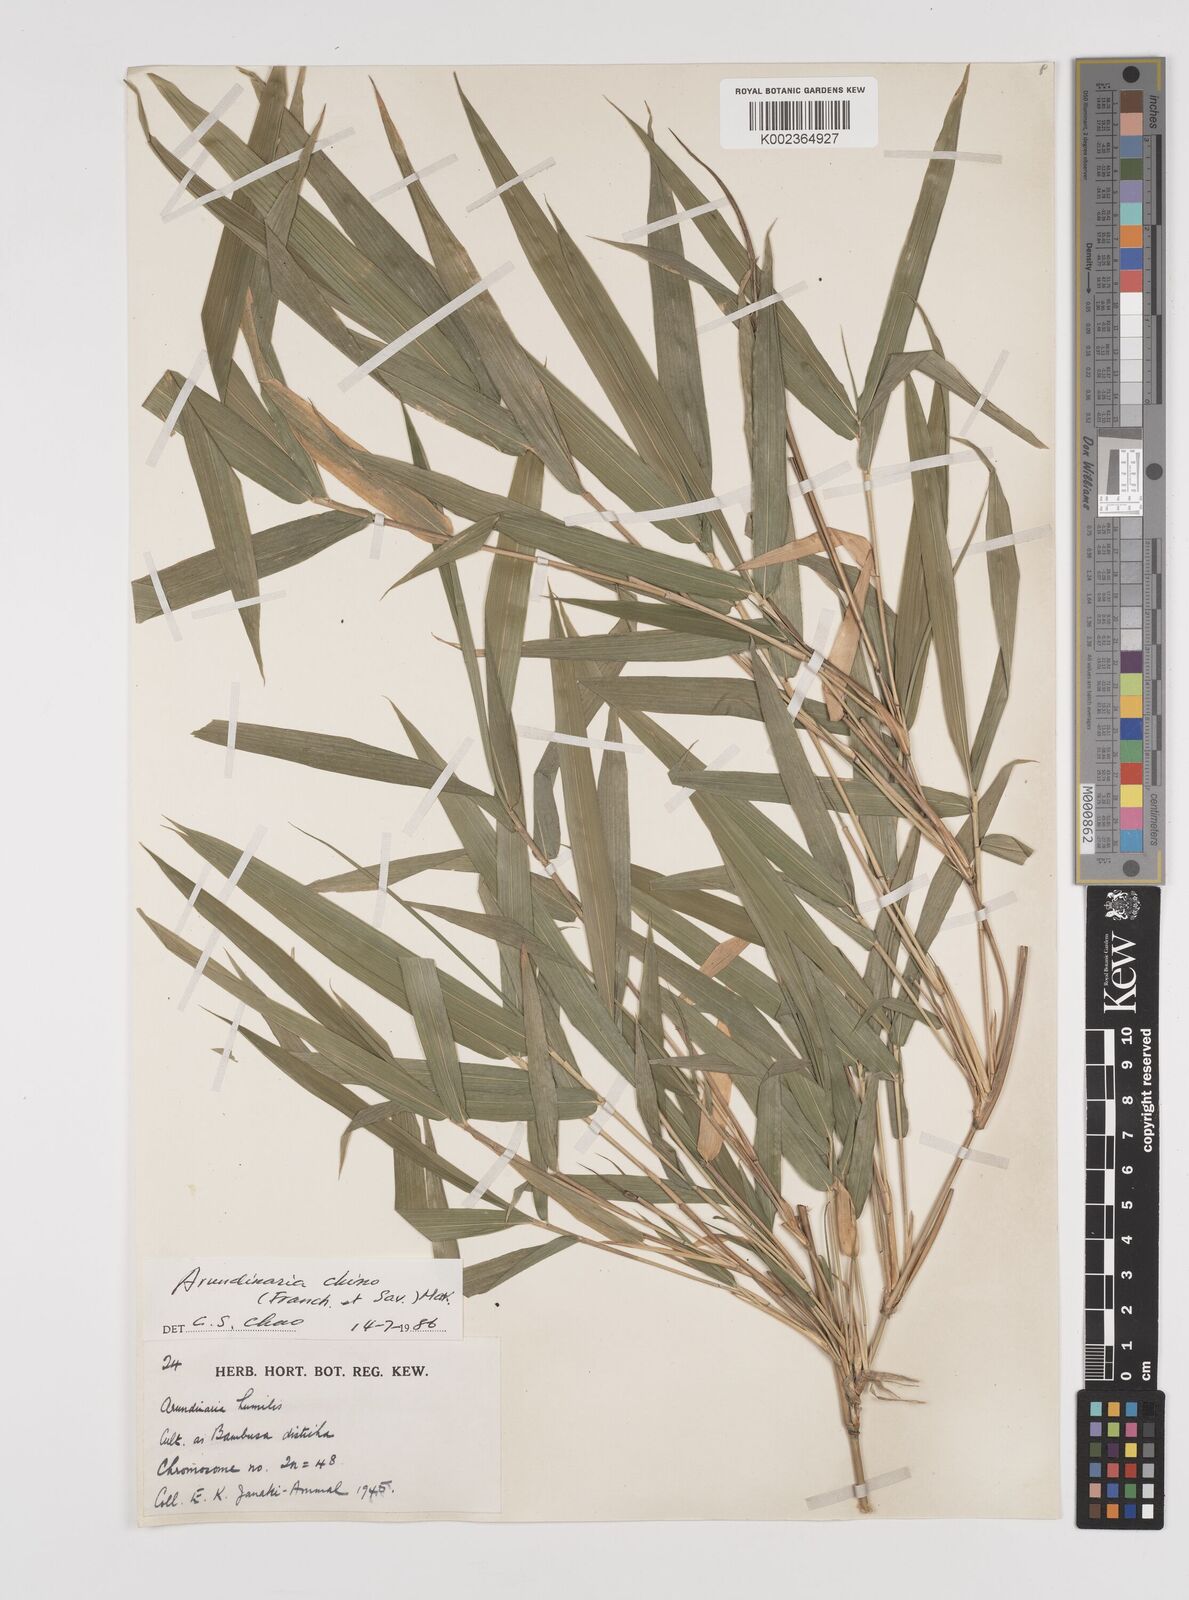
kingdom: Plantae
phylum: Tracheophyta
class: Liliopsida
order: Poales
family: Poaceae
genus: Pleioblastus
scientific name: Pleioblastus argenteostriatus
